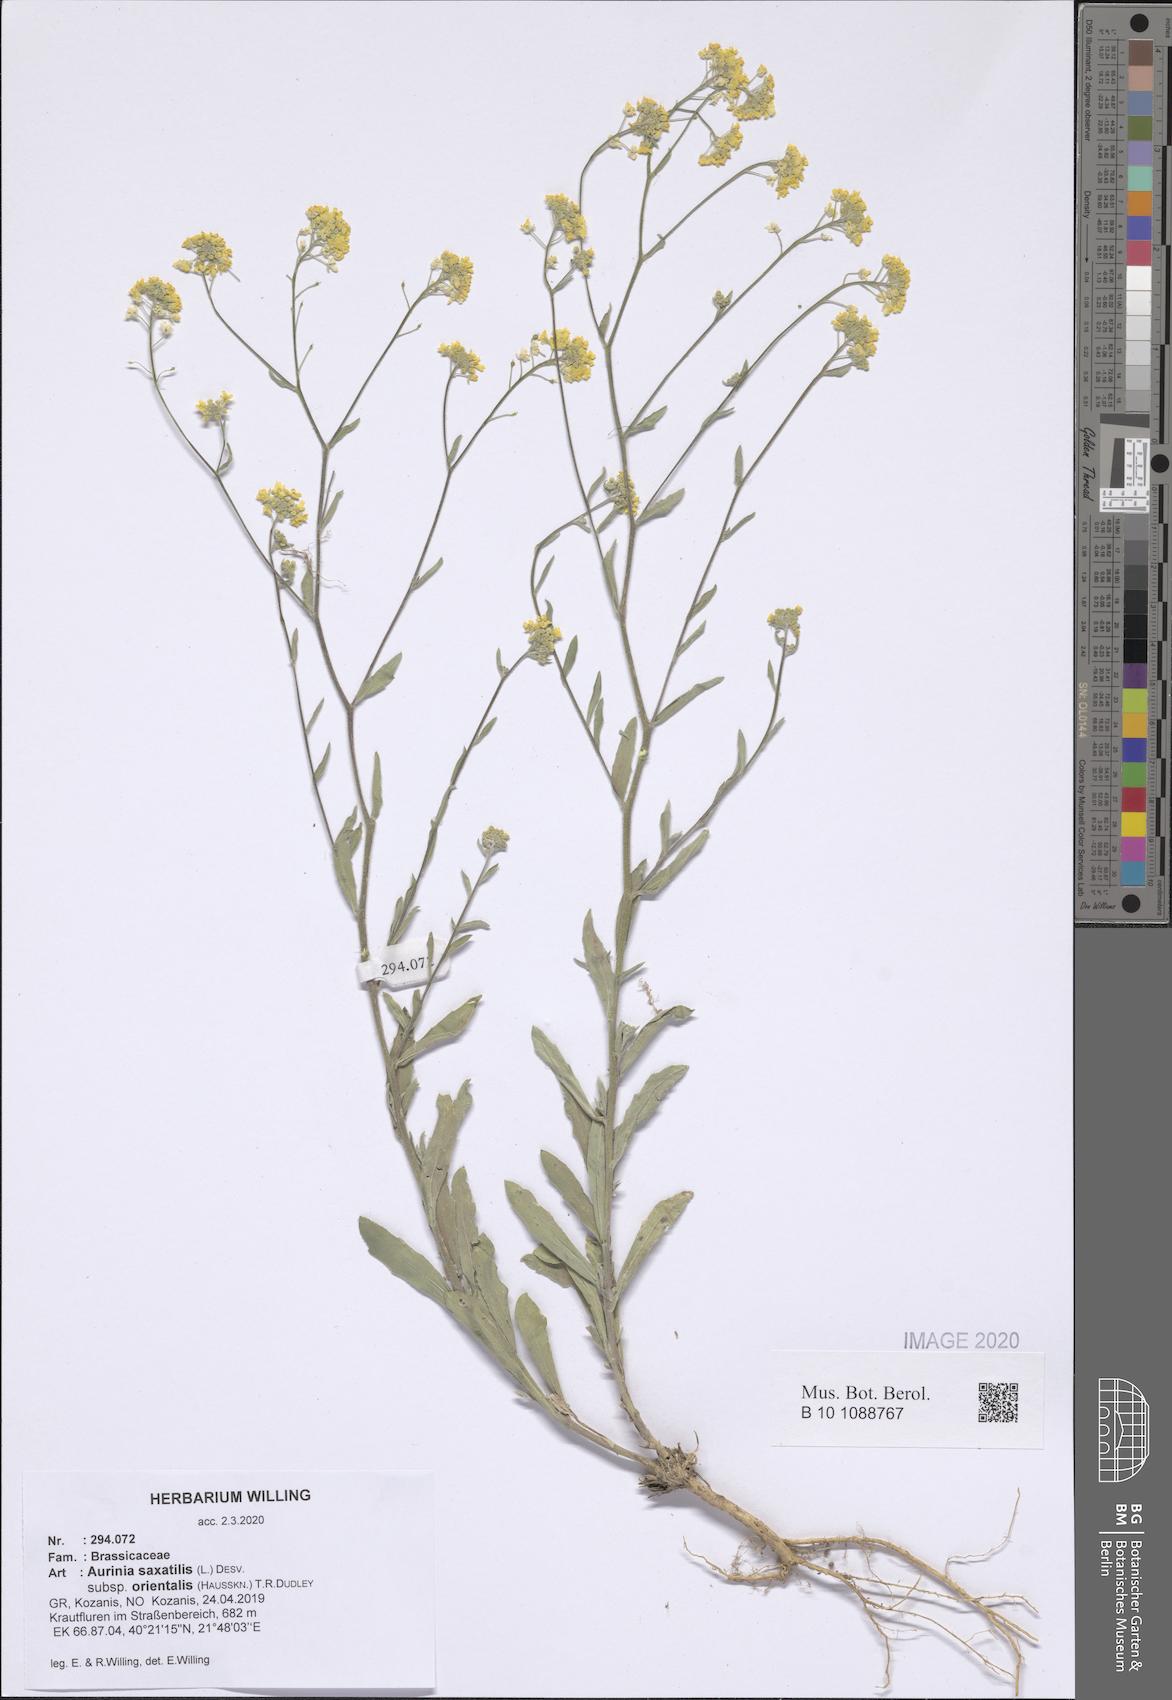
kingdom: Plantae
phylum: Tracheophyta
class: Magnoliopsida
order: Brassicales
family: Brassicaceae
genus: Aurinia
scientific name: Aurinia saxatilis
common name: Golden-tuft alyssum
